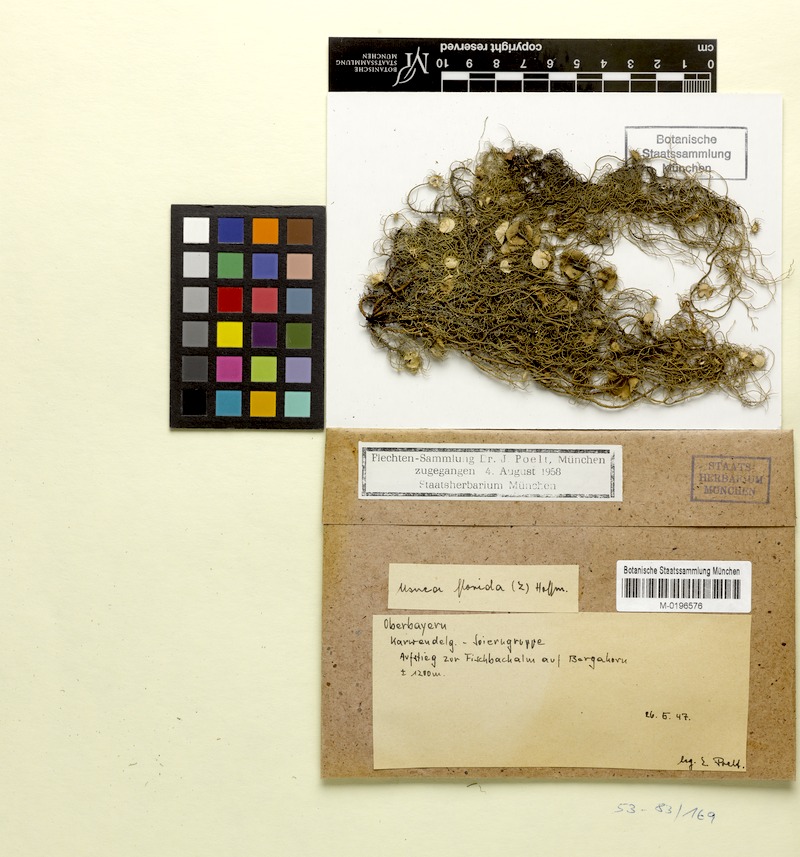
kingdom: Fungi
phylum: Ascomycota
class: Lecanoromycetes
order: Lecanorales
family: Parmeliaceae
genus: Usnea
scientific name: Usnea florida
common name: Witches' whiskers lichen
